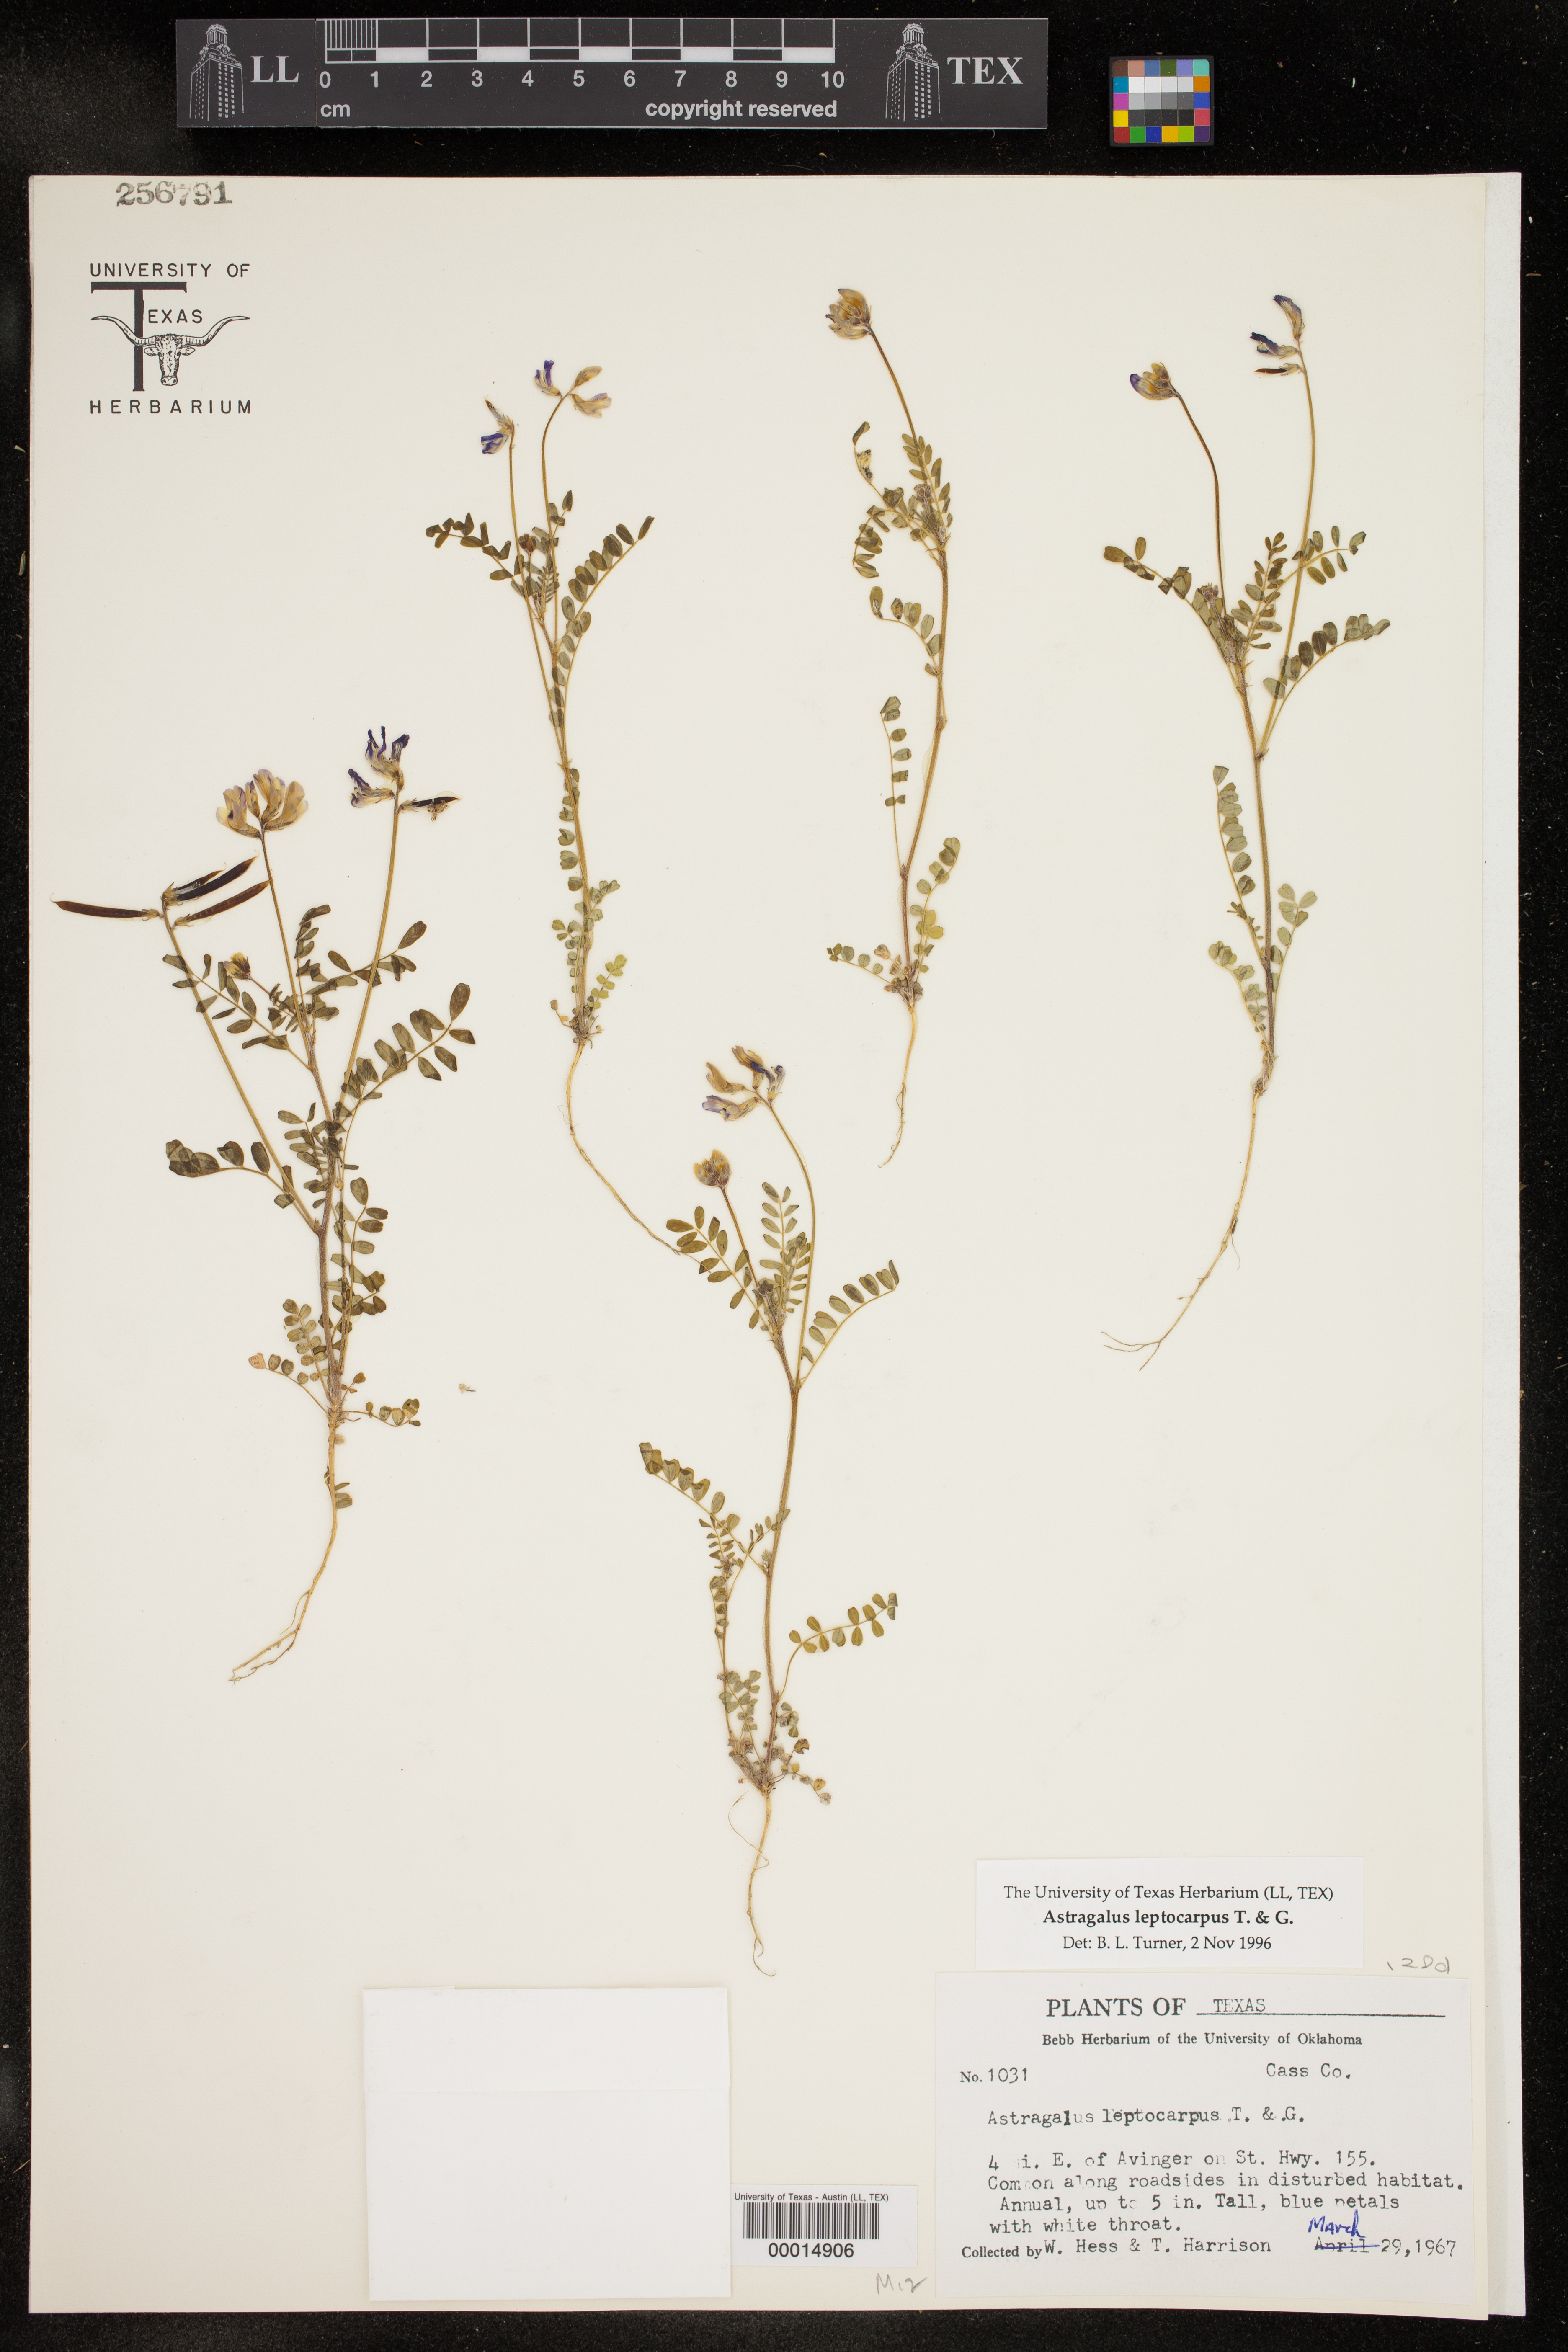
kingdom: Plantae
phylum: Tracheophyta
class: Magnoliopsida
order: Fabales
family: Fabaceae
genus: Astragalus
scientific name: Astragalus leptocarpus
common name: Bodkin milk-vetch
